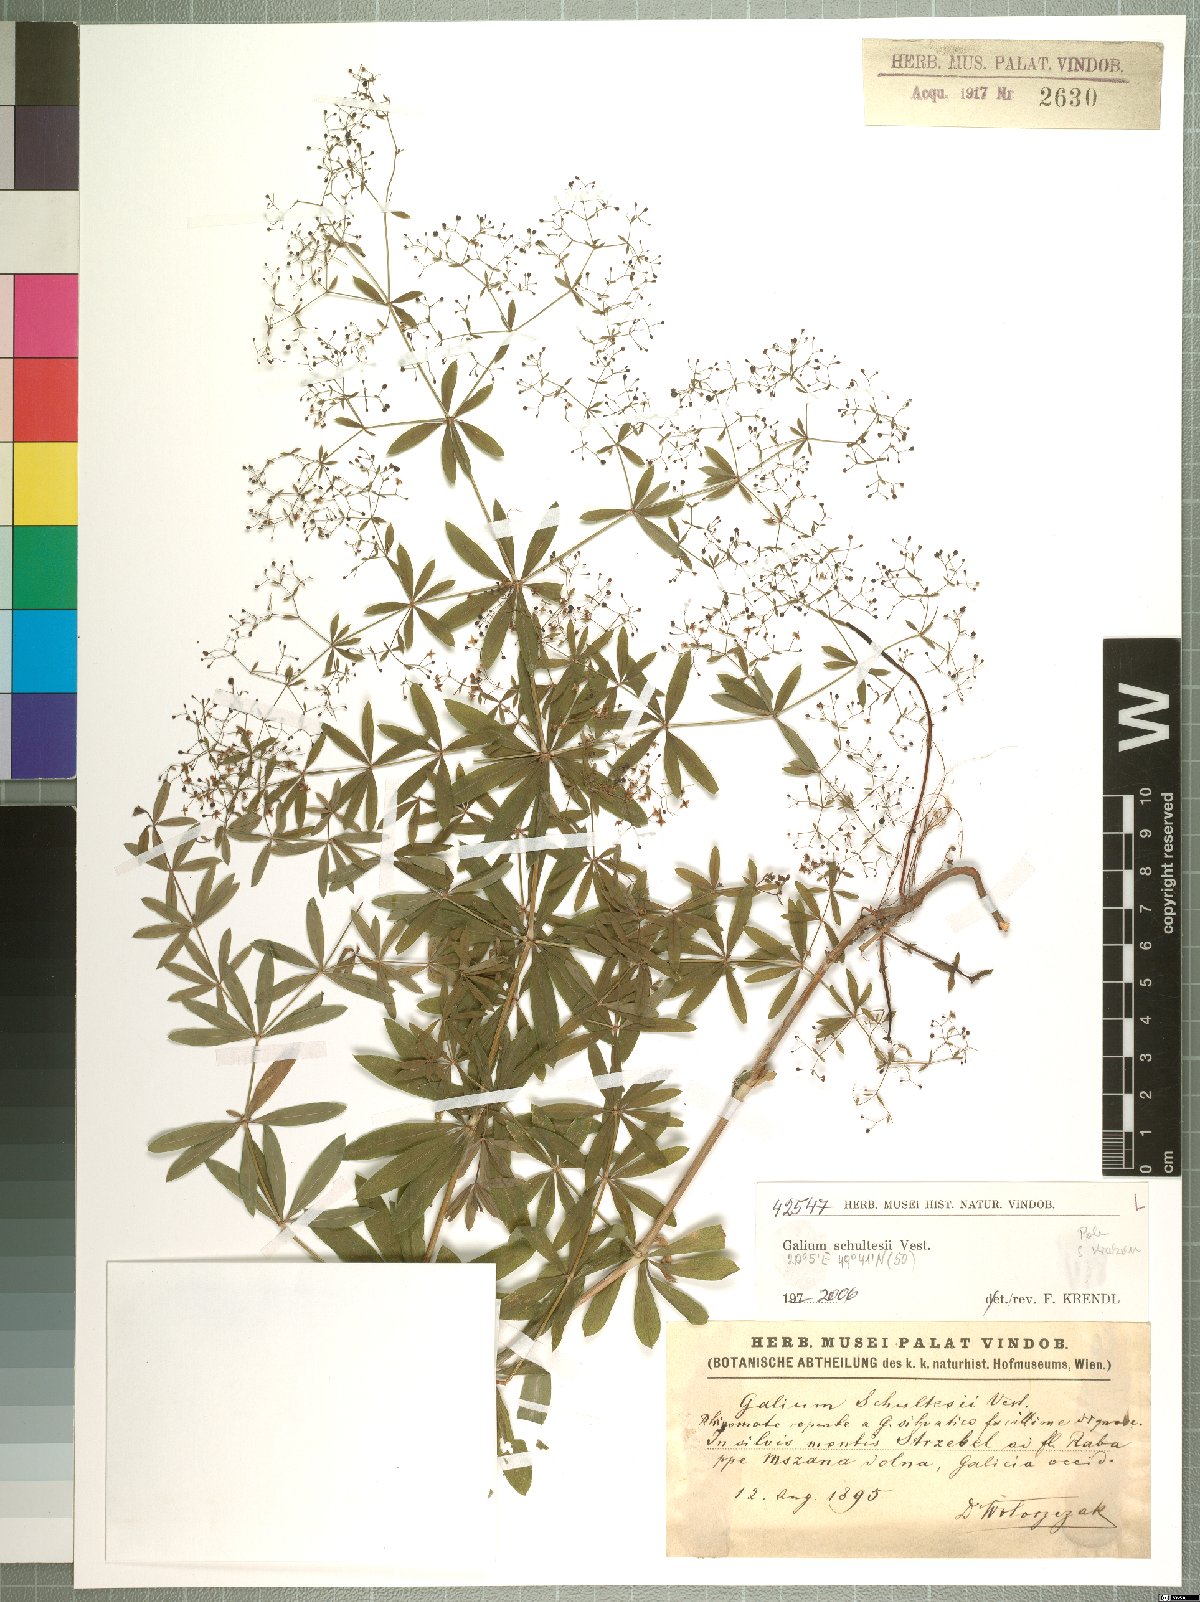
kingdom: Plantae
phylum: Tracheophyta
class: Magnoliopsida
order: Gentianales
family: Rubiaceae
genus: Galium
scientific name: Galium intermedium
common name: Bedstraw
